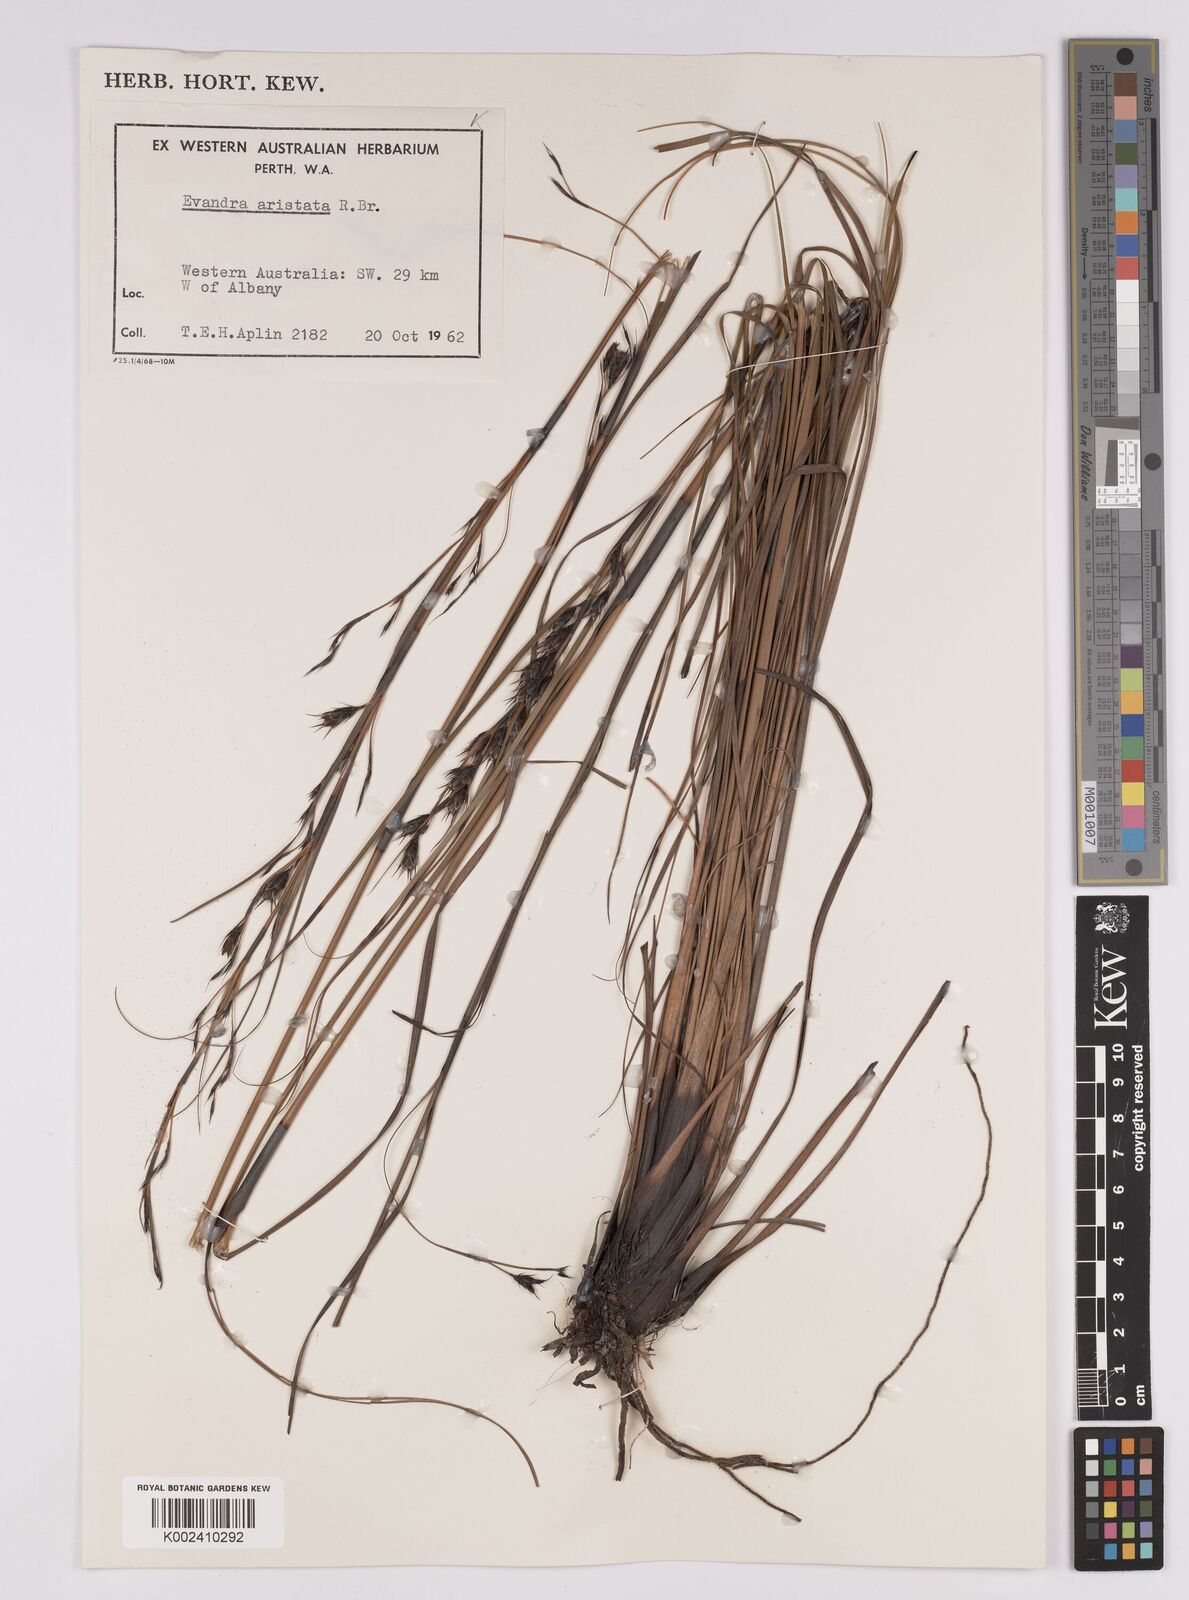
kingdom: Plantae
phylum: Tracheophyta
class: Liliopsida
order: Poales
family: Cyperaceae
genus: Evandra
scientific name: Evandra aristata
